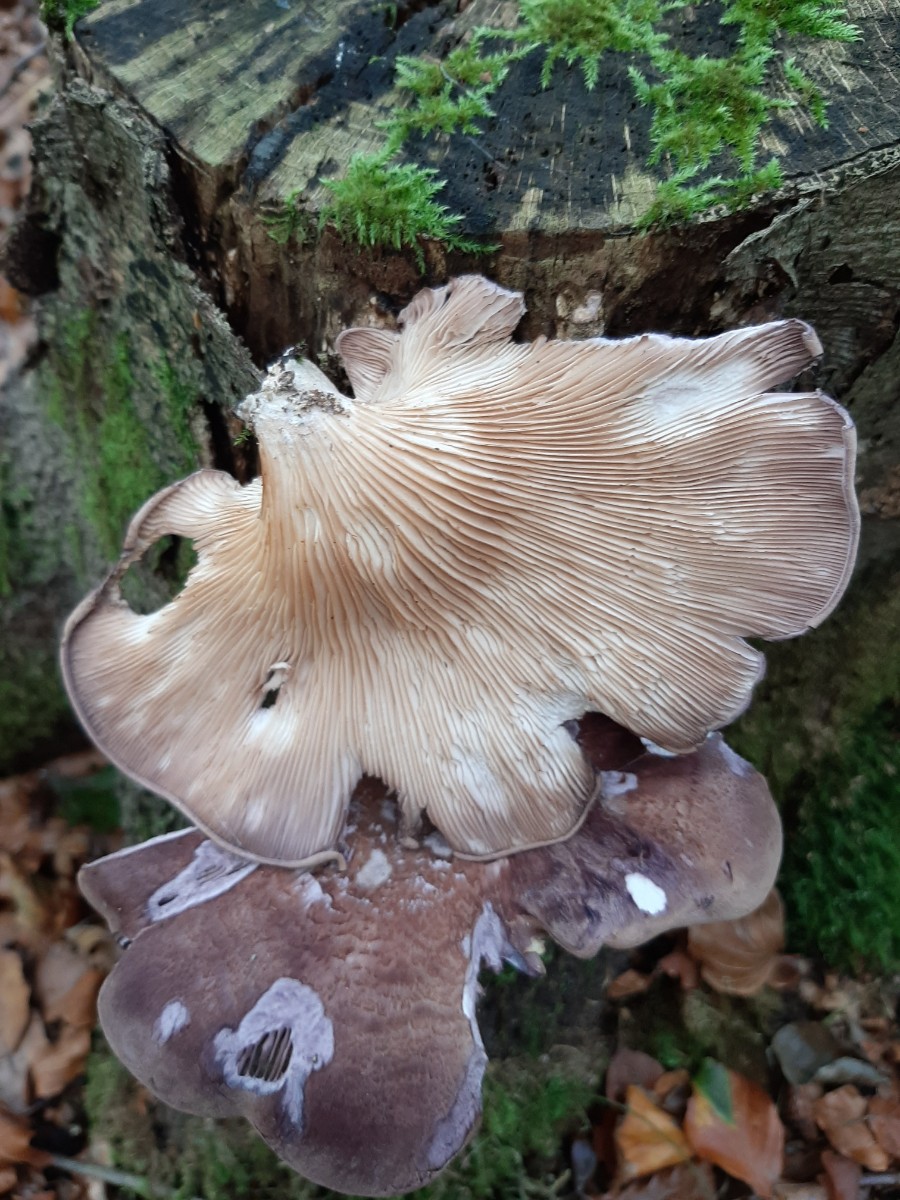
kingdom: Fungi
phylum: Basidiomycota
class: Agaricomycetes
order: Polyporales
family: Panaceae
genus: Panus
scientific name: Panus conchatus
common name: filtstokket læderhat
